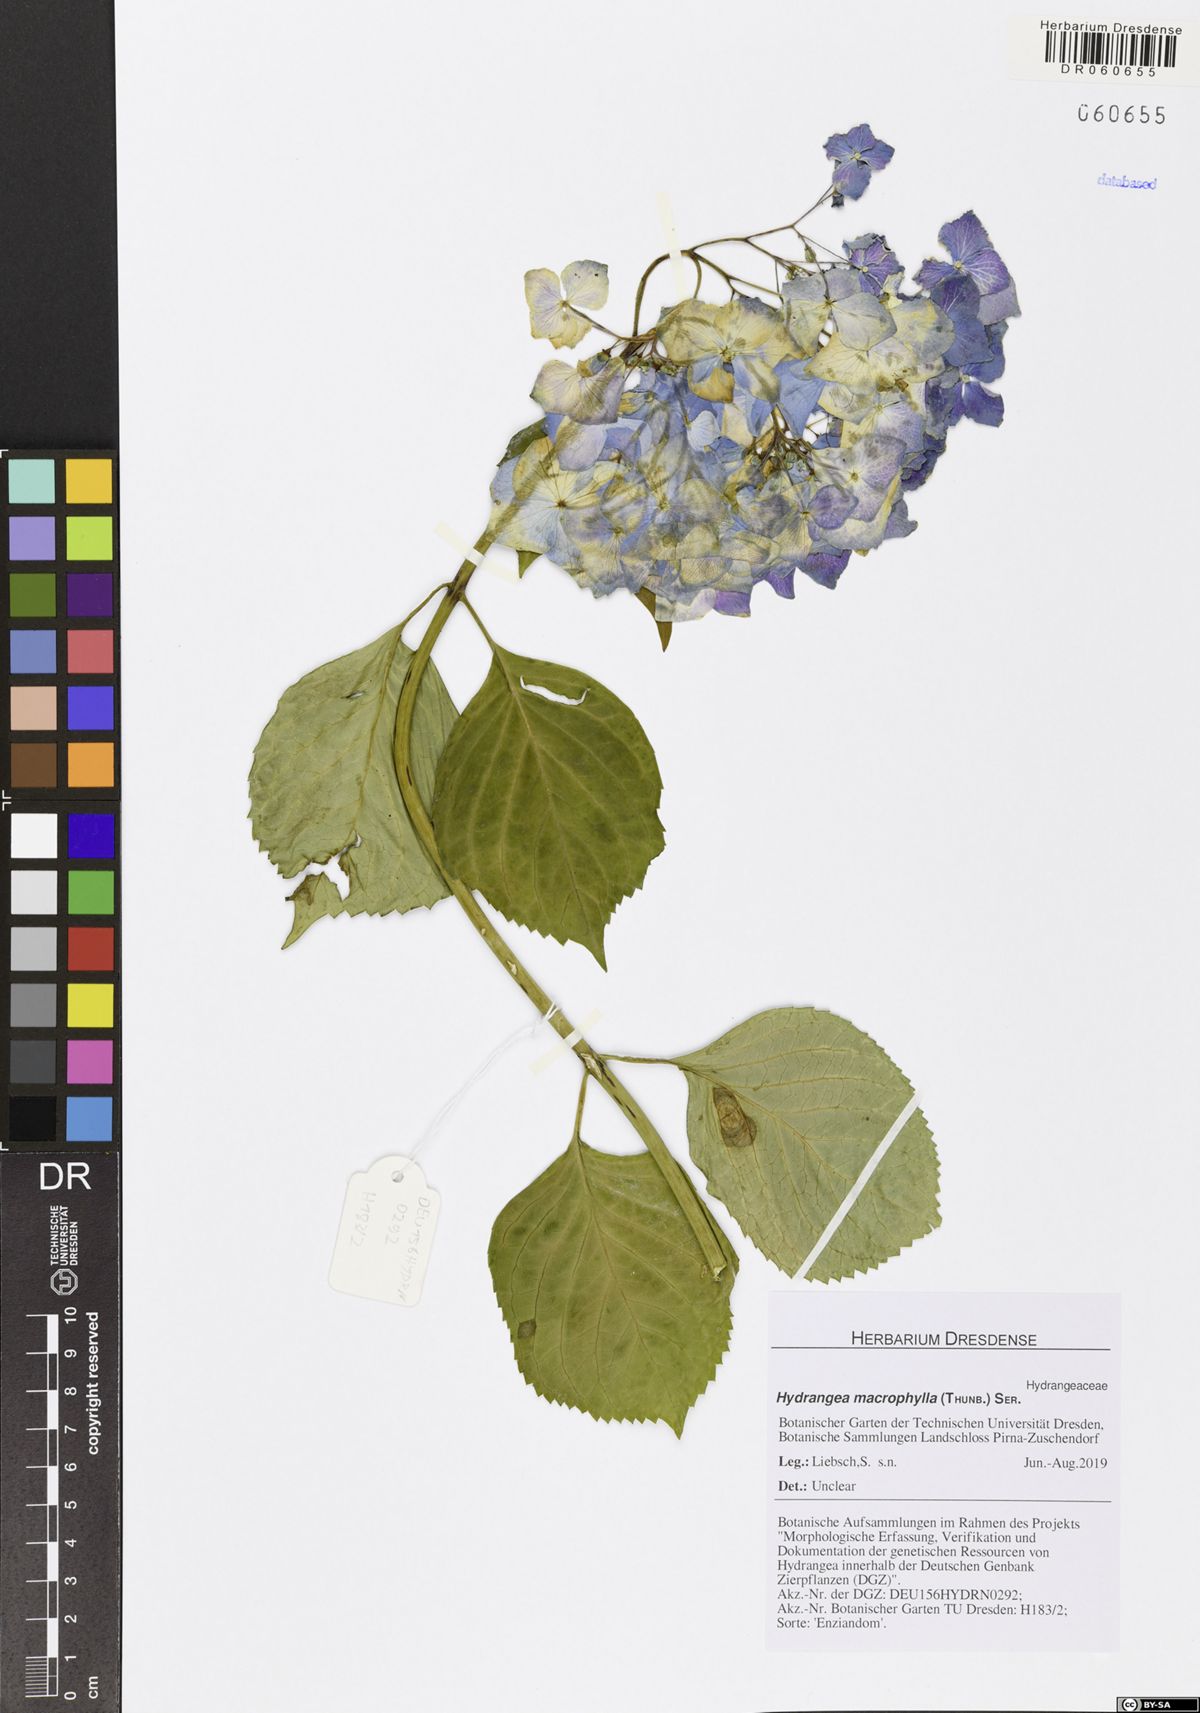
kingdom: Plantae
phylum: Tracheophyta
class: Magnoliopsida
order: Cornales
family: Hydrangeaceae
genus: Hydrangea
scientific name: Hydrangea macrophylla
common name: Hydrangea
